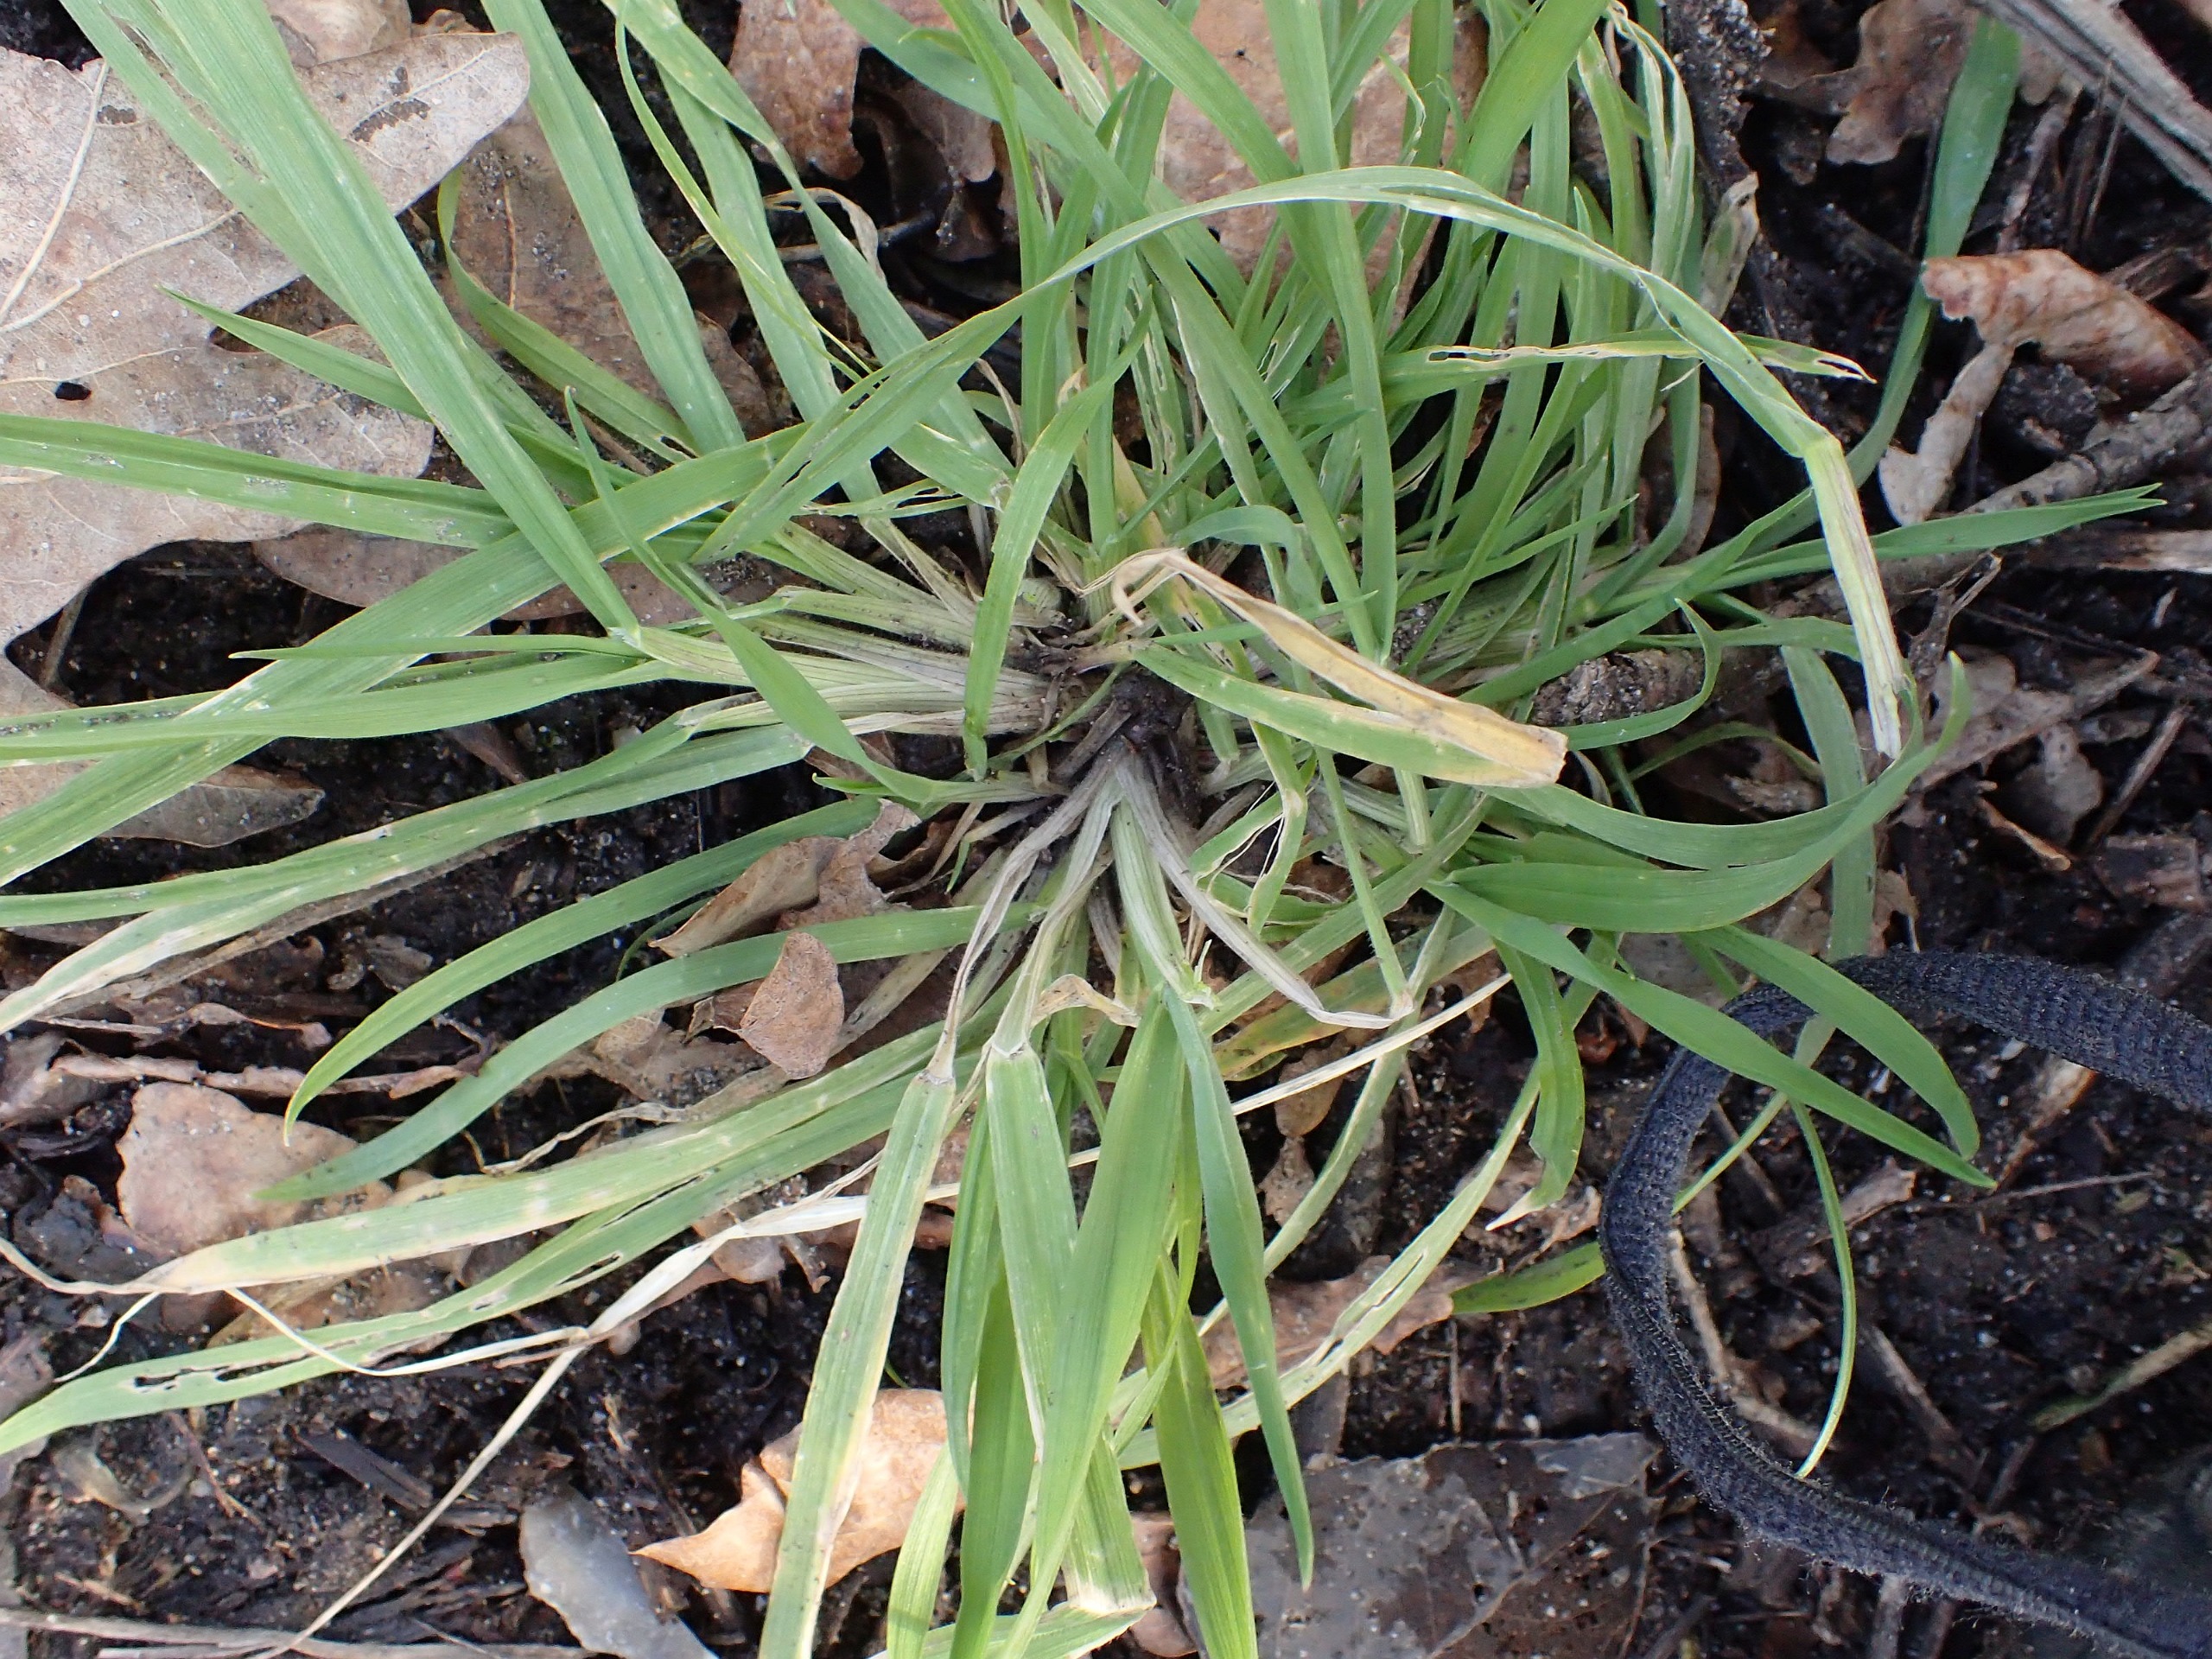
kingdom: Plantae
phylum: Tracheophyta
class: Liliopsida
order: Poales
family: Poaceae
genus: Dactylis
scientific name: Dactylis glomerata
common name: Almindelig hundegræs
